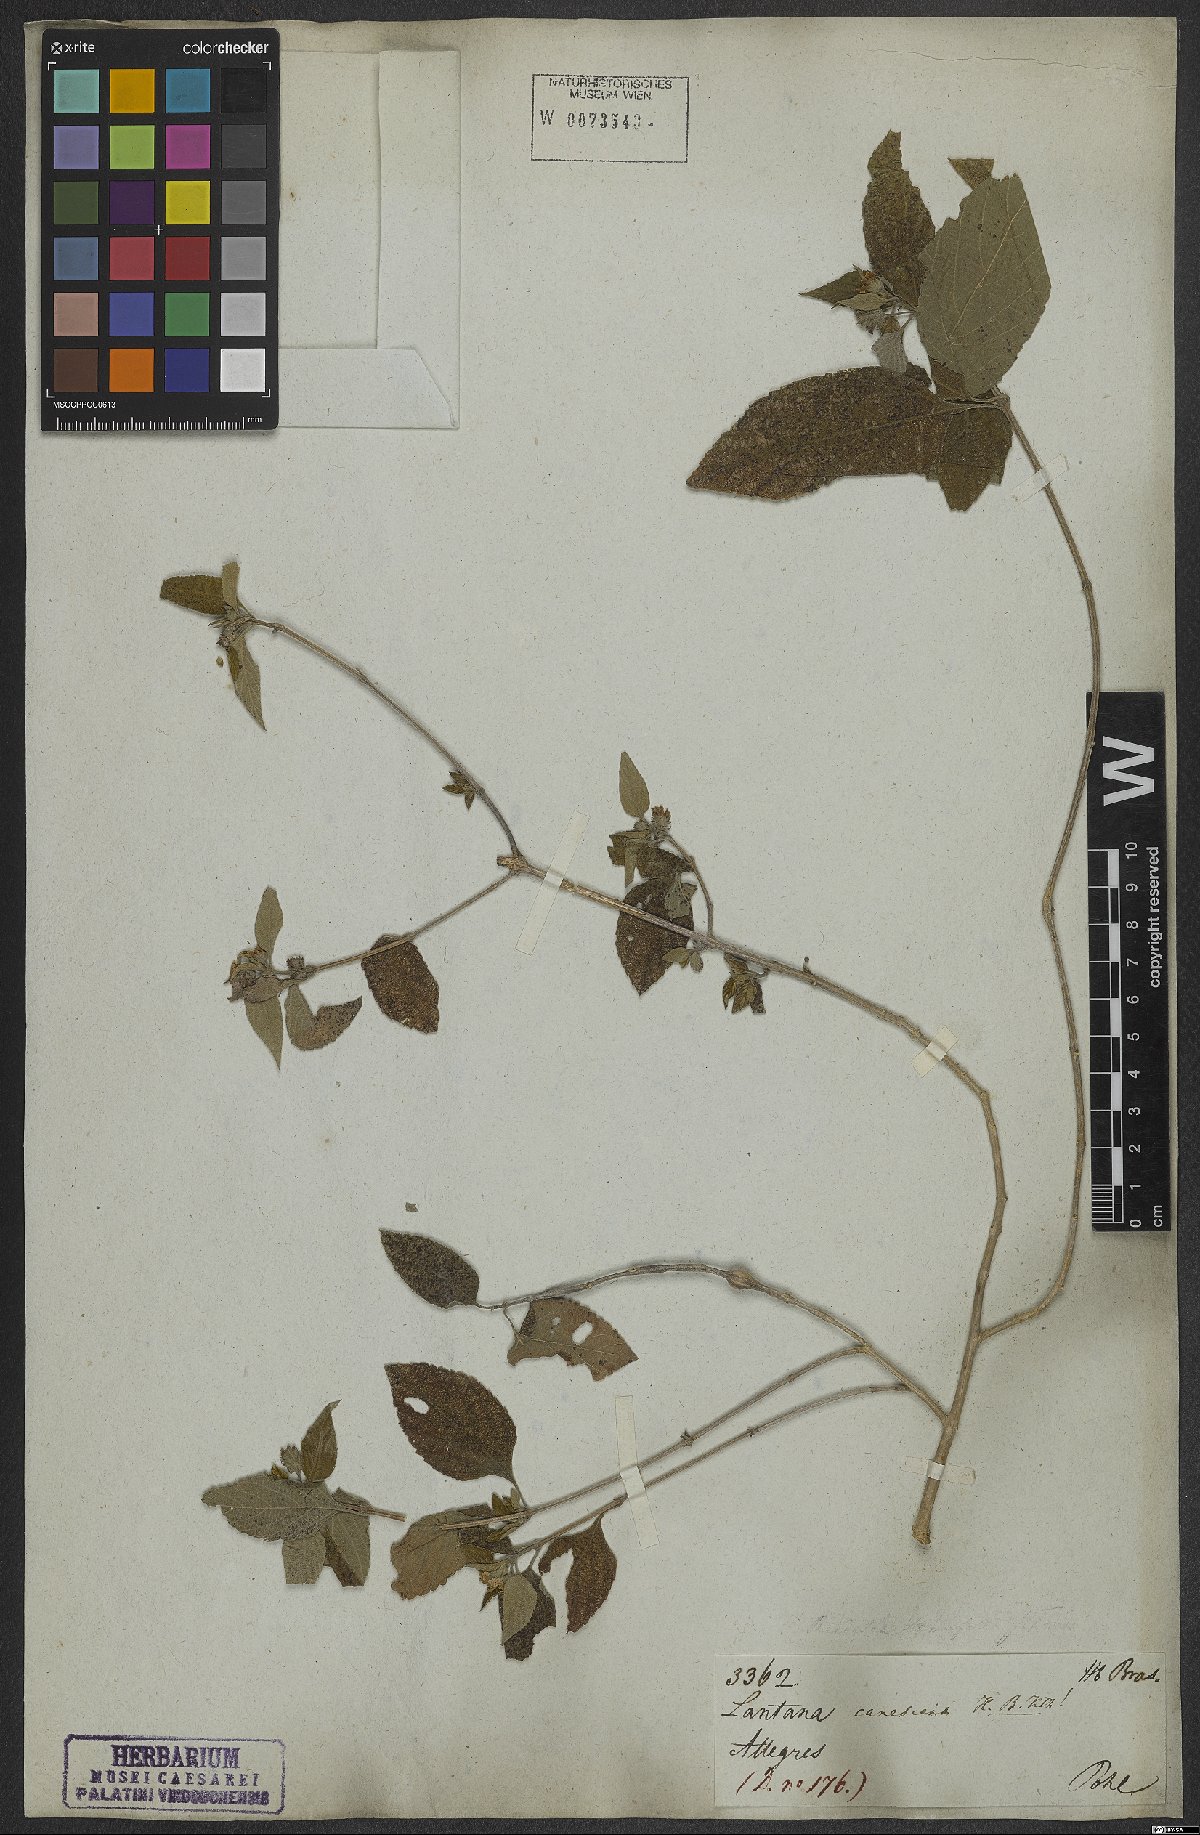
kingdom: Plantae
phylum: Tracheophyta
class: Magnoliopsida
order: Lamiales
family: Verbenaceae
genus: Lantana
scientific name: Lantana canescens
